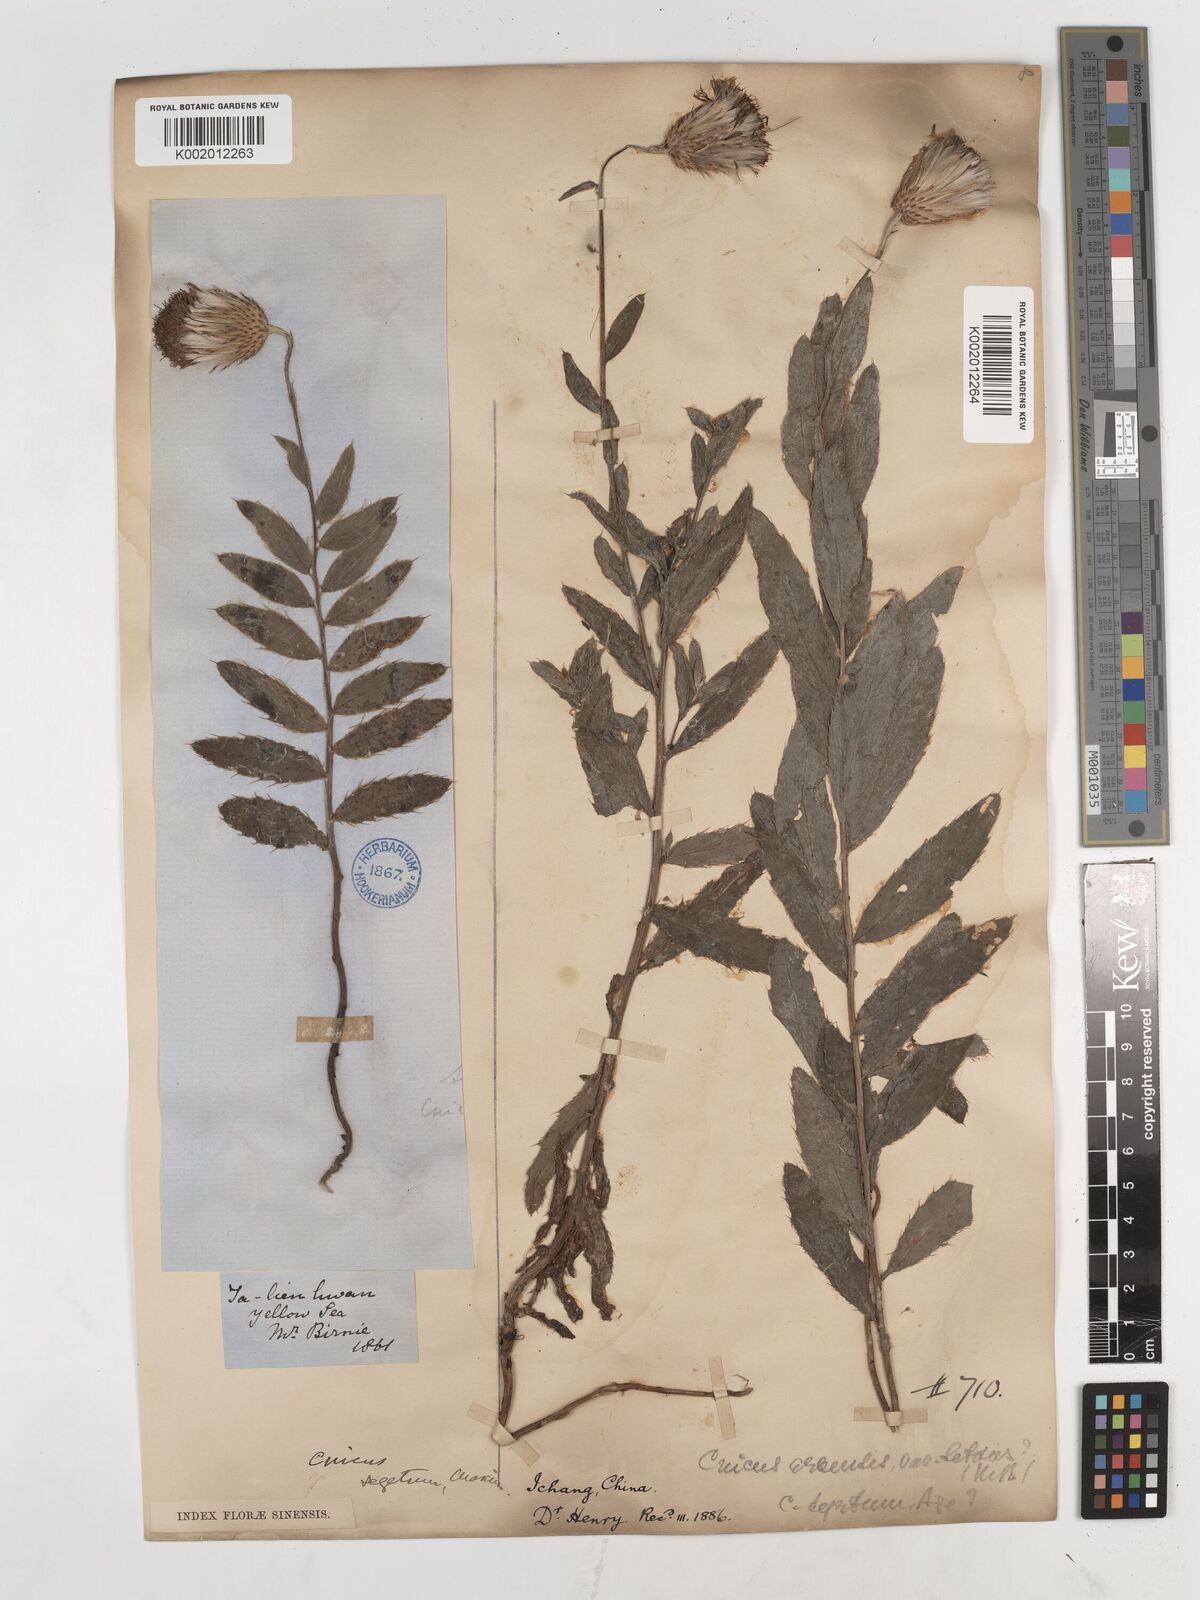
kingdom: Plantae
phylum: Tracheophyta
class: Magnoliopsida
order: Asterales
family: Asteraceae
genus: Cirsium
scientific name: Cirsium
